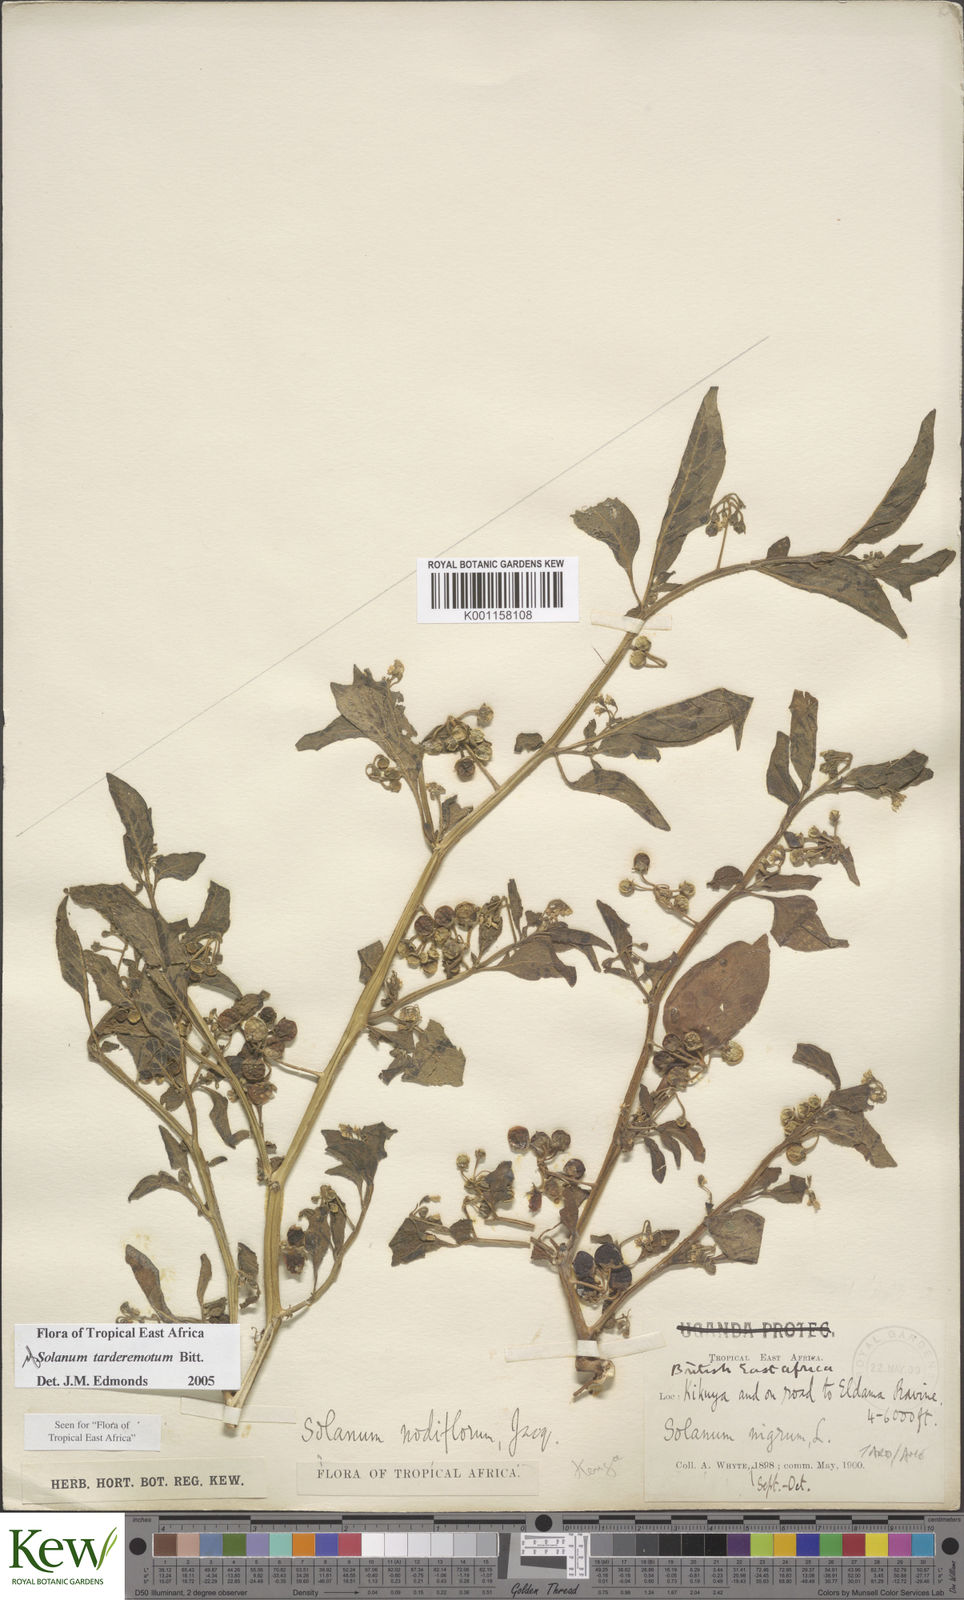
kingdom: Plantae
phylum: Tracheophyta
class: Magnoliopsida
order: Solanales
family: Solanaceae
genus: Solanum
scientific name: Solanum tarderemotum
